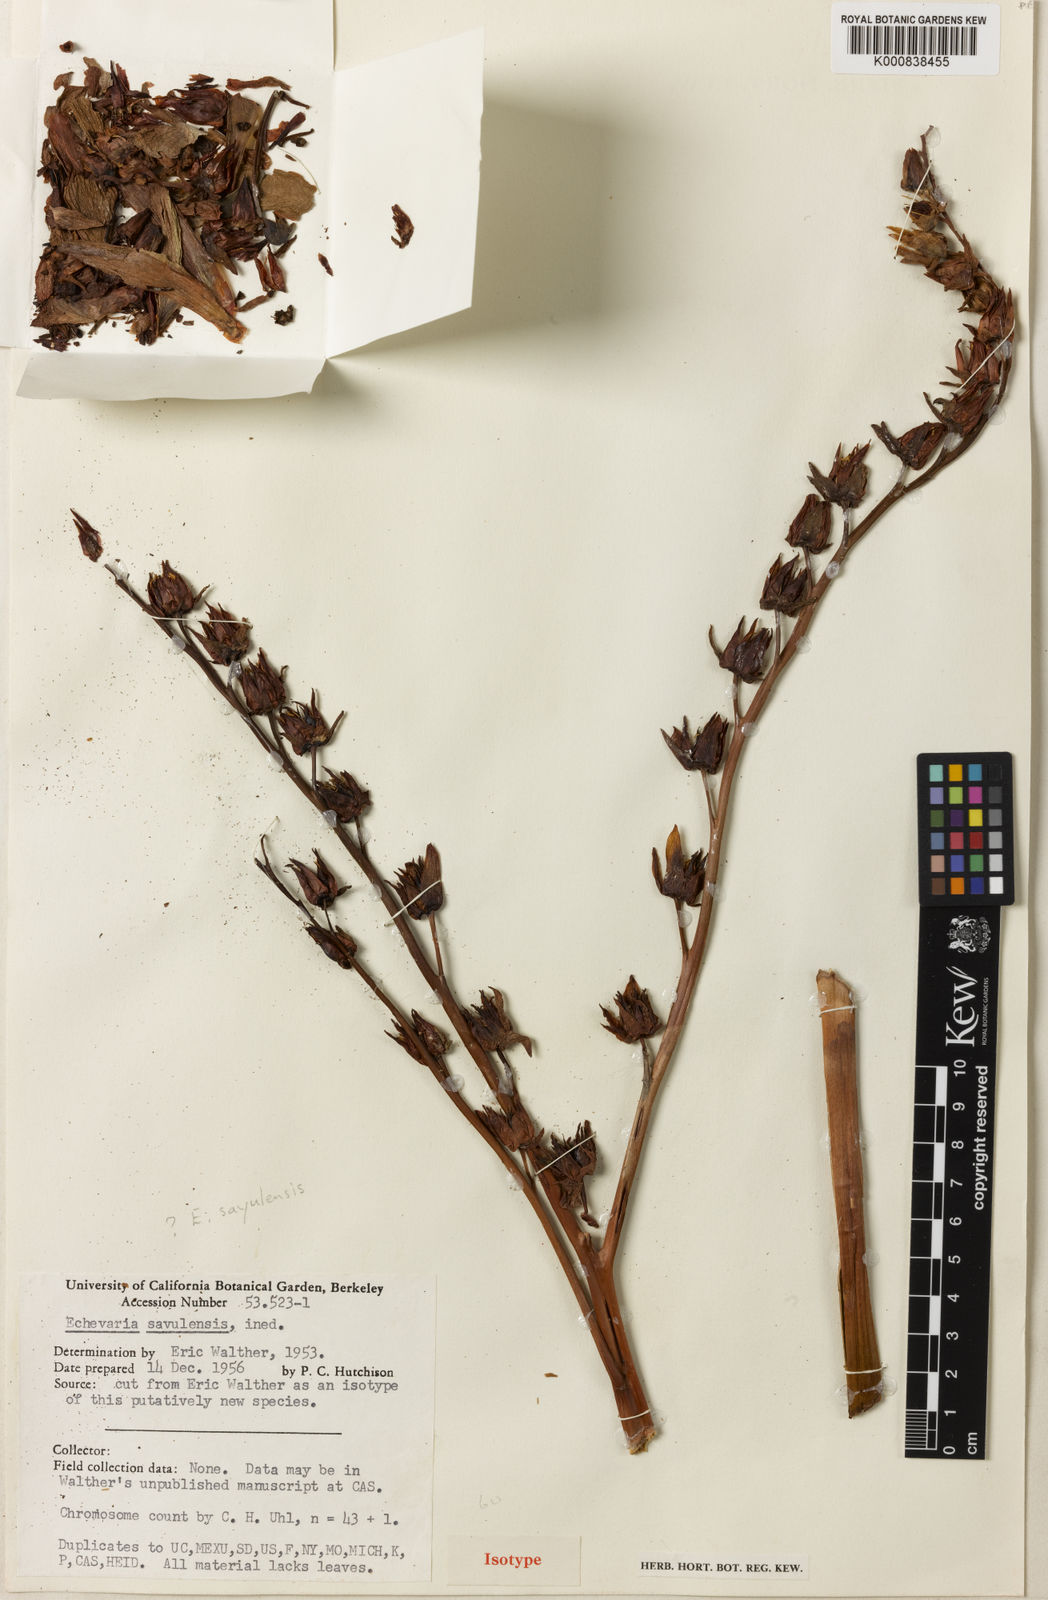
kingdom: Plantae
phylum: Tracheophyta
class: Magnoliopsida
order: Saxifragales
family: Crassulaceae
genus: Echeveria
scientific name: Echeveria sayulensis
